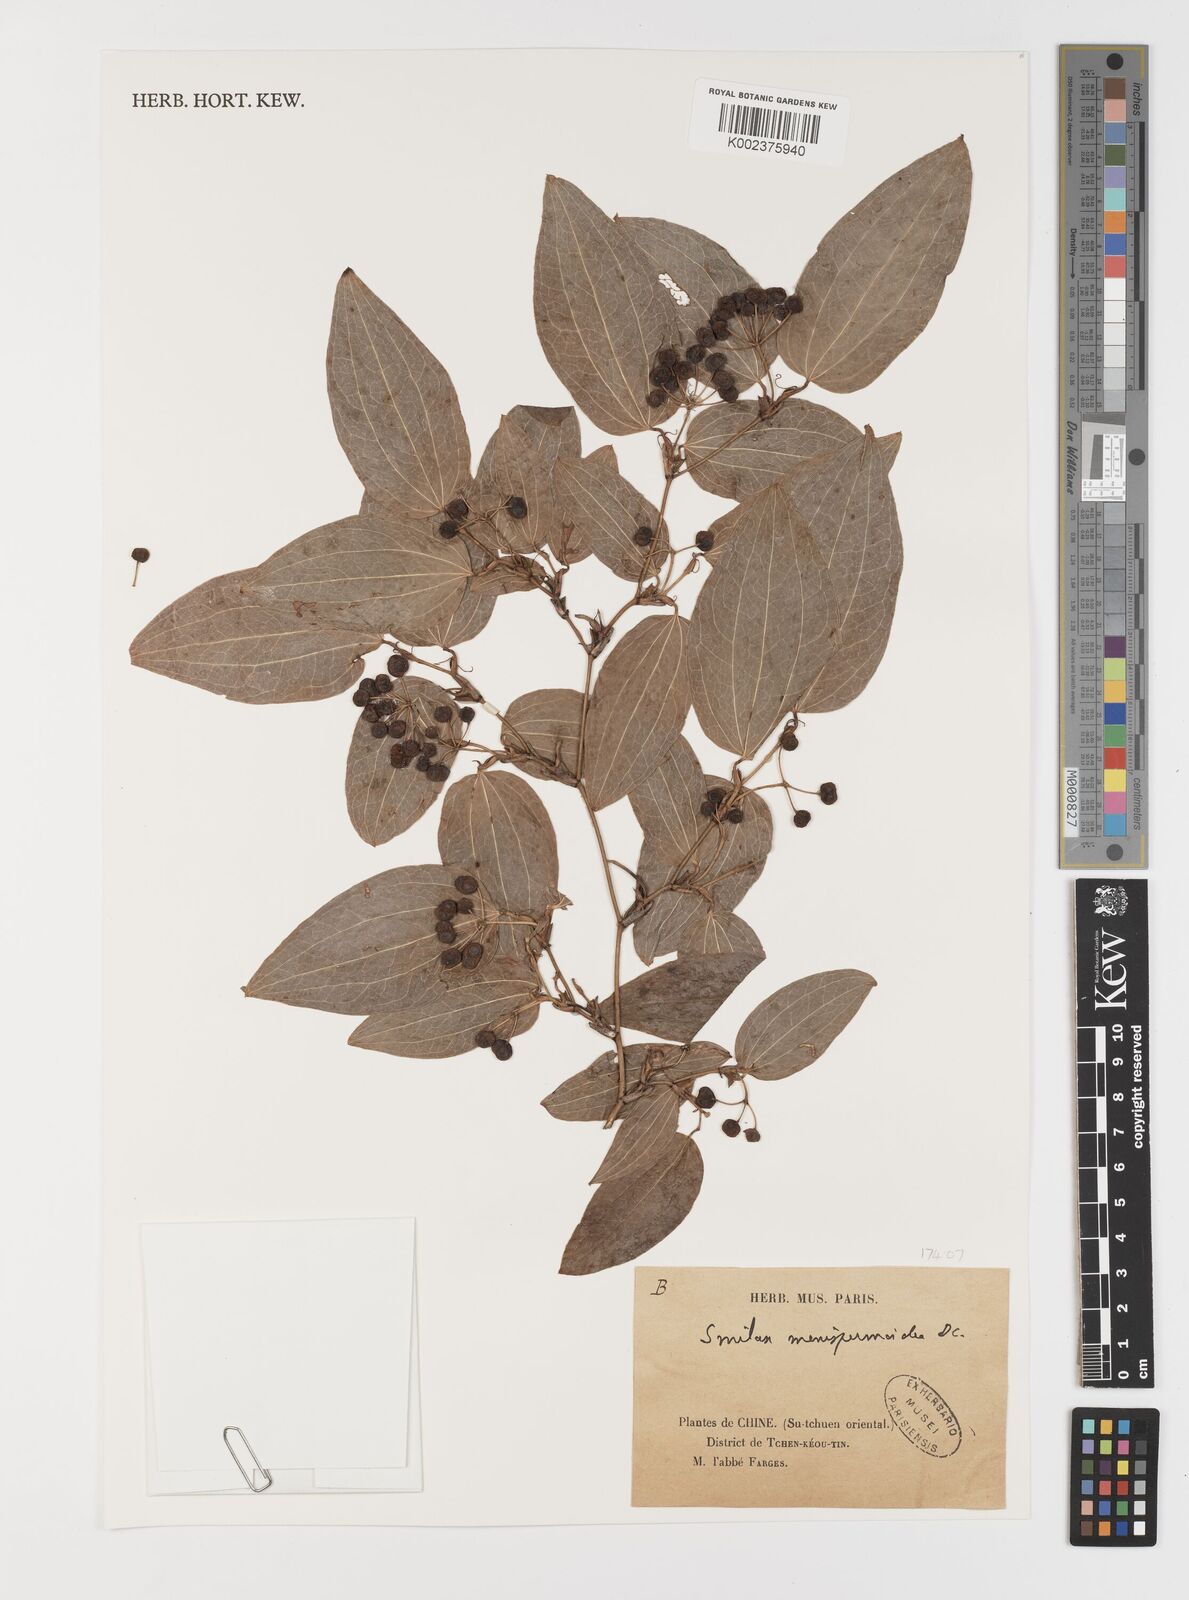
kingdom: Plantae
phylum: Tracheophyta
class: Liliopsida
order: Liliales
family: Smilacaceae
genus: Smilax
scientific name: Smilax menispermoidea
